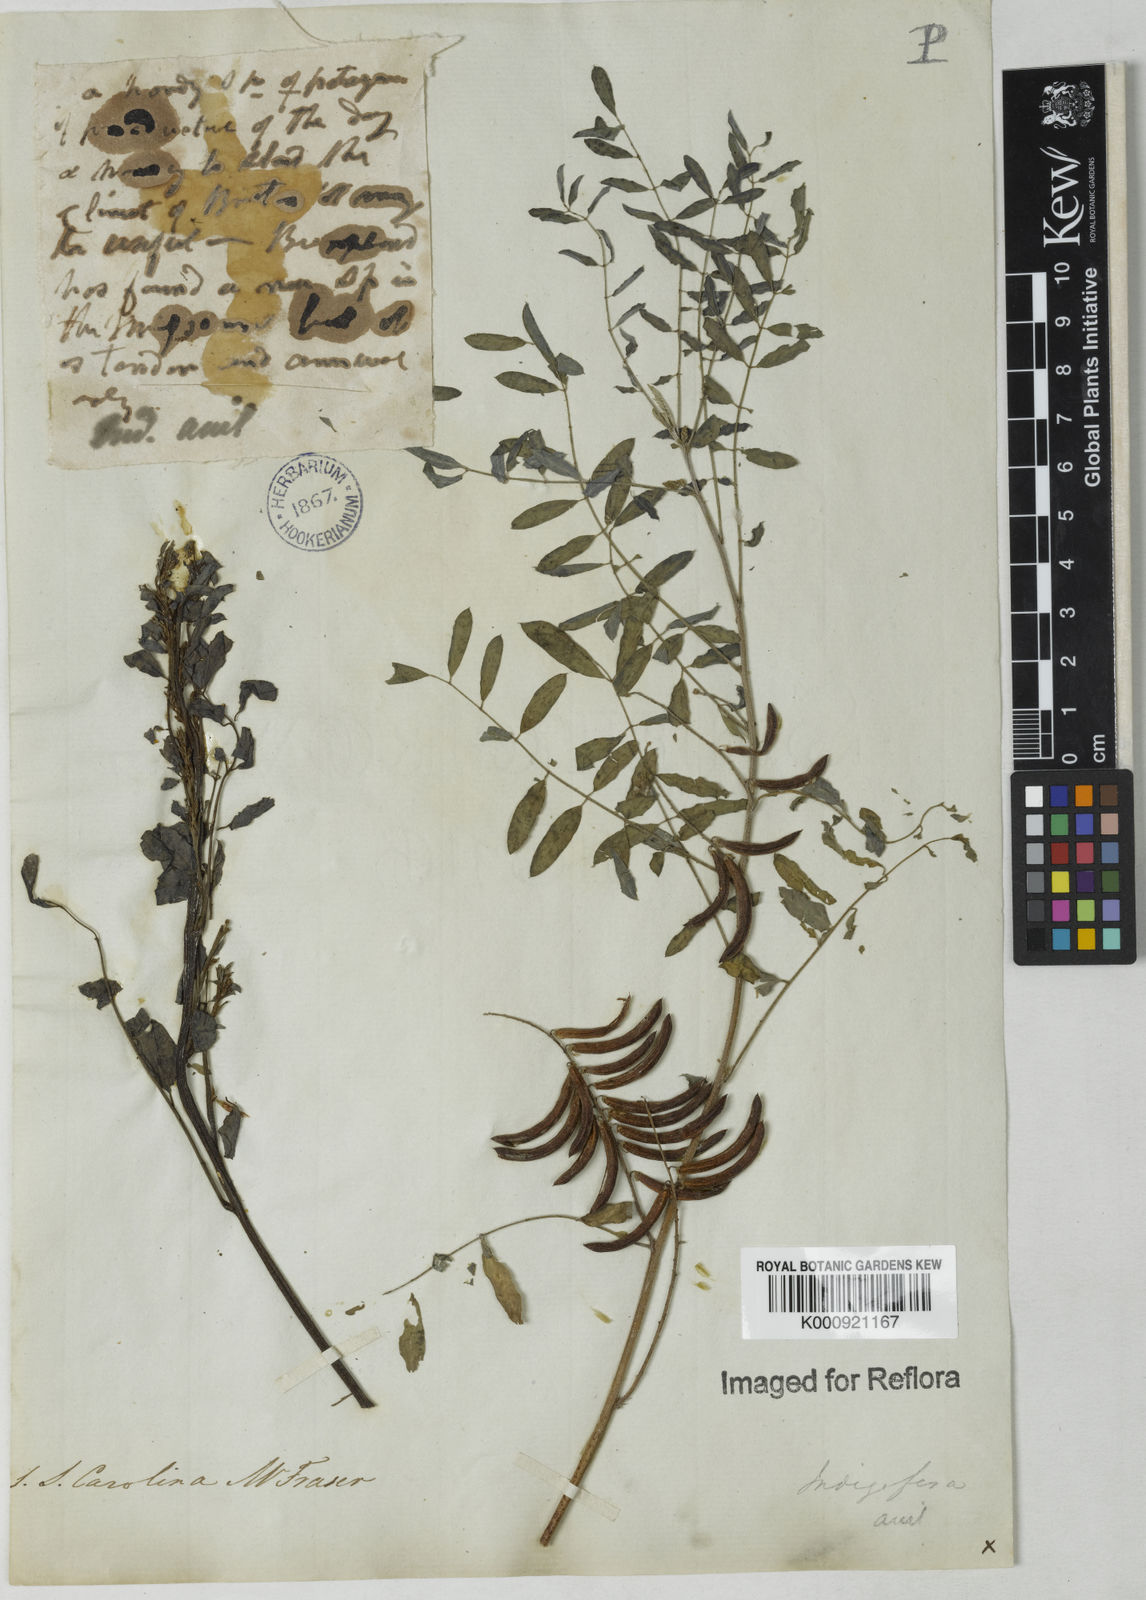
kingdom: Plantae
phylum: Tracheophyta
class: Magnoliopsida
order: Fabales
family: Fabaceae
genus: Indigofera
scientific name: Indigofera suffruticosa
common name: Anil de pasto
